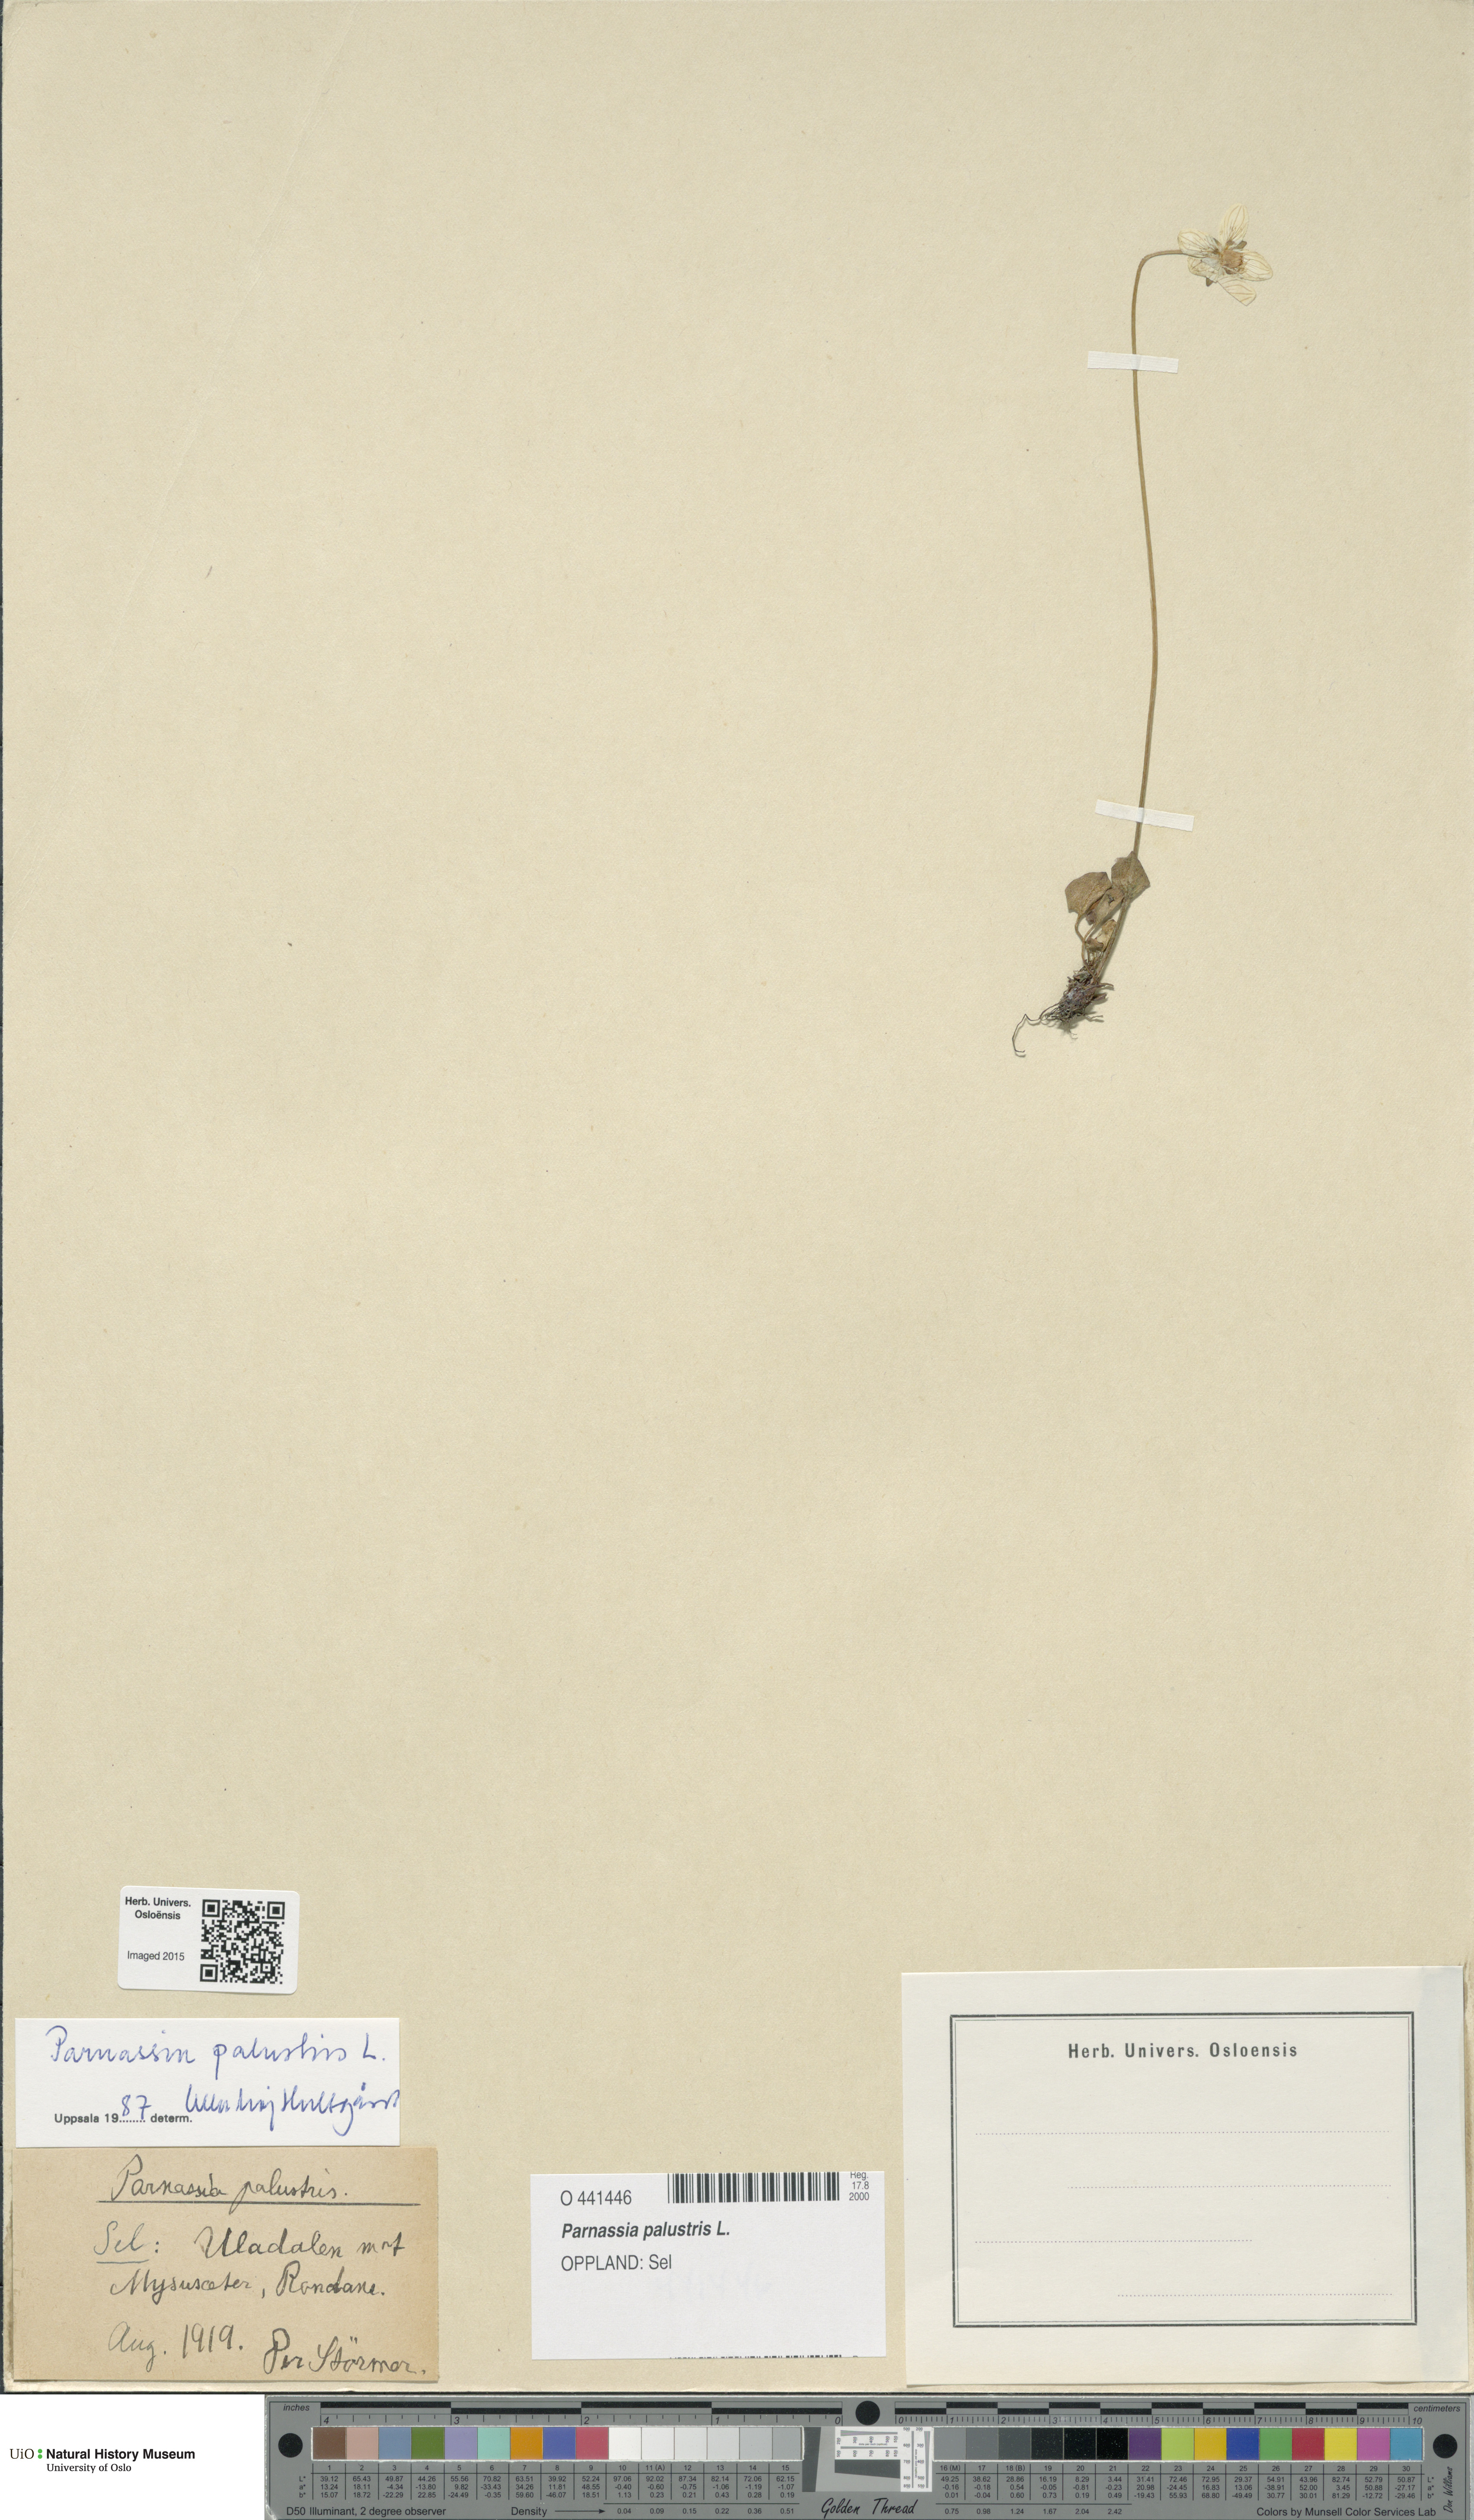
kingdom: Plantae
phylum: Tracheophyta
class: Magnoliopsida
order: Celastrales
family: Parnassiaceae
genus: Parnassia
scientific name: Parnassia palustris
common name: Grass-of-parnassus
